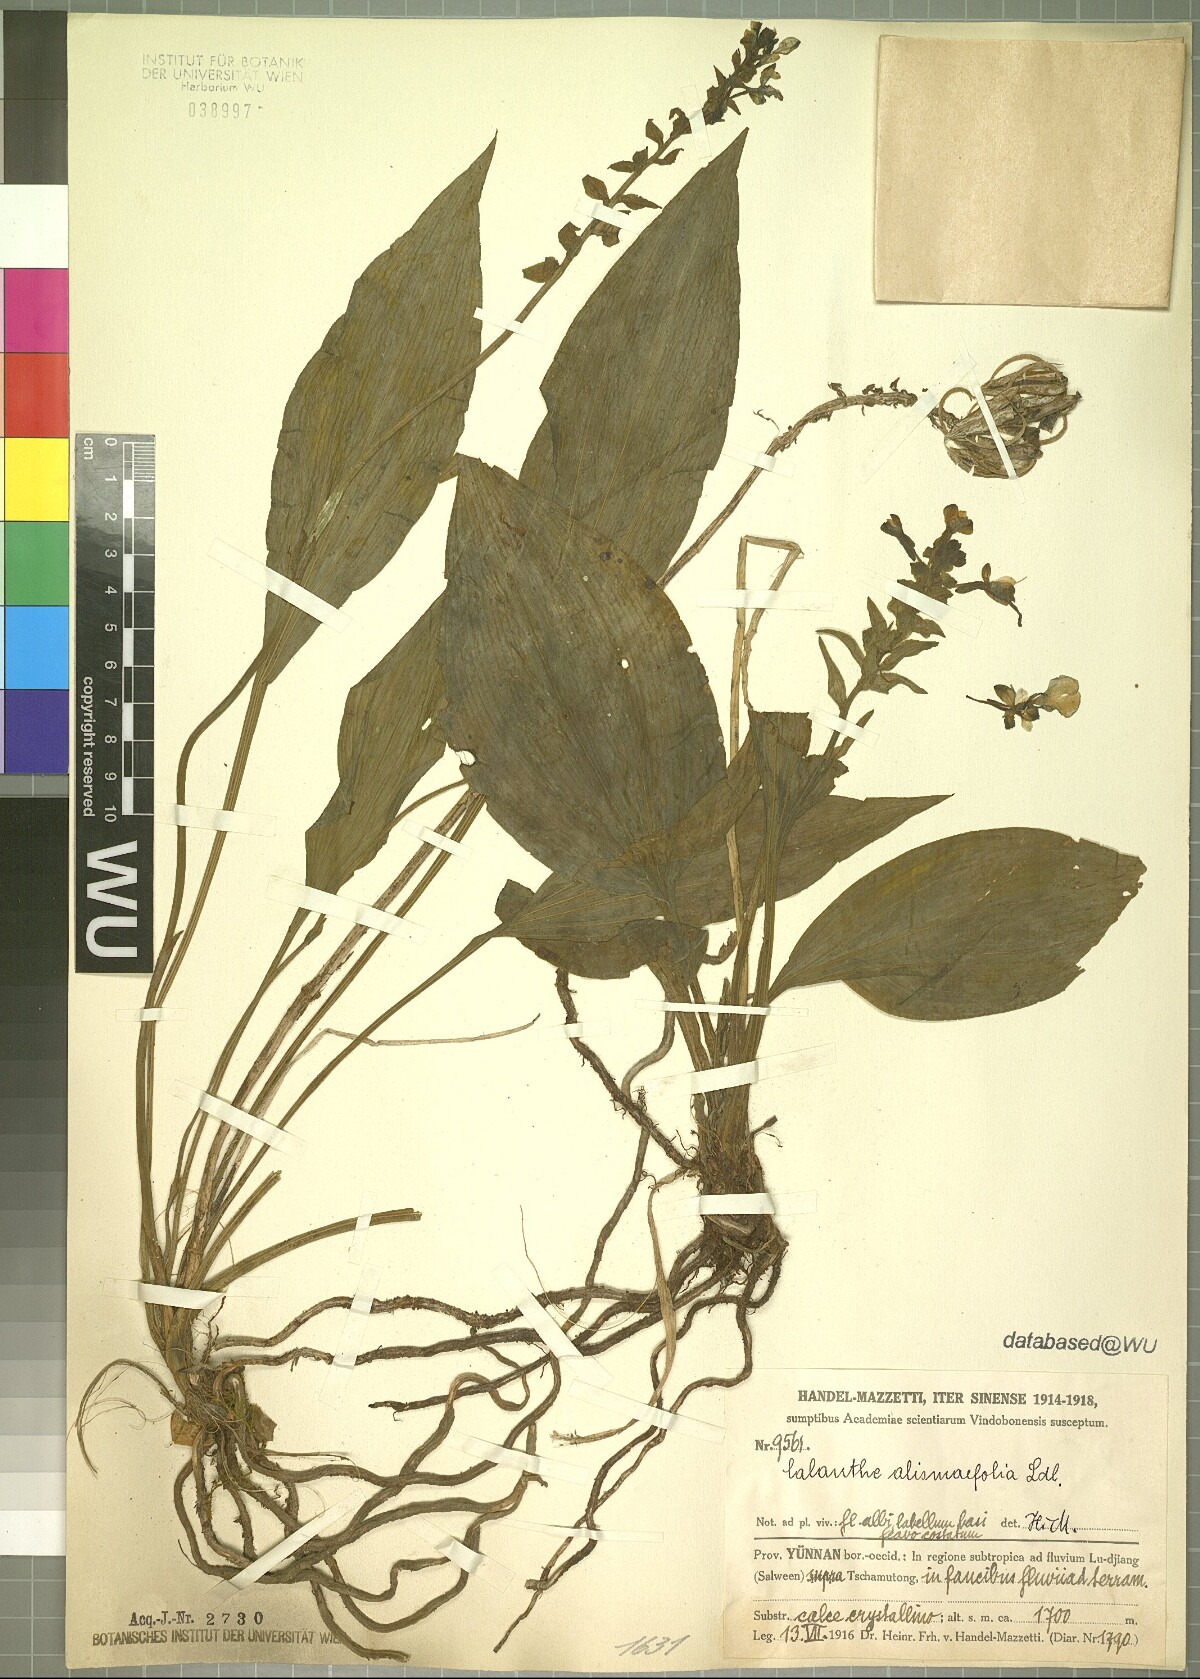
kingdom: Plantae
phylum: Tracheophyta
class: Liliopsida
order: Asparagales
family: Orchidaceae
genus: Calanthe
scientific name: Calanthe alismifolia
